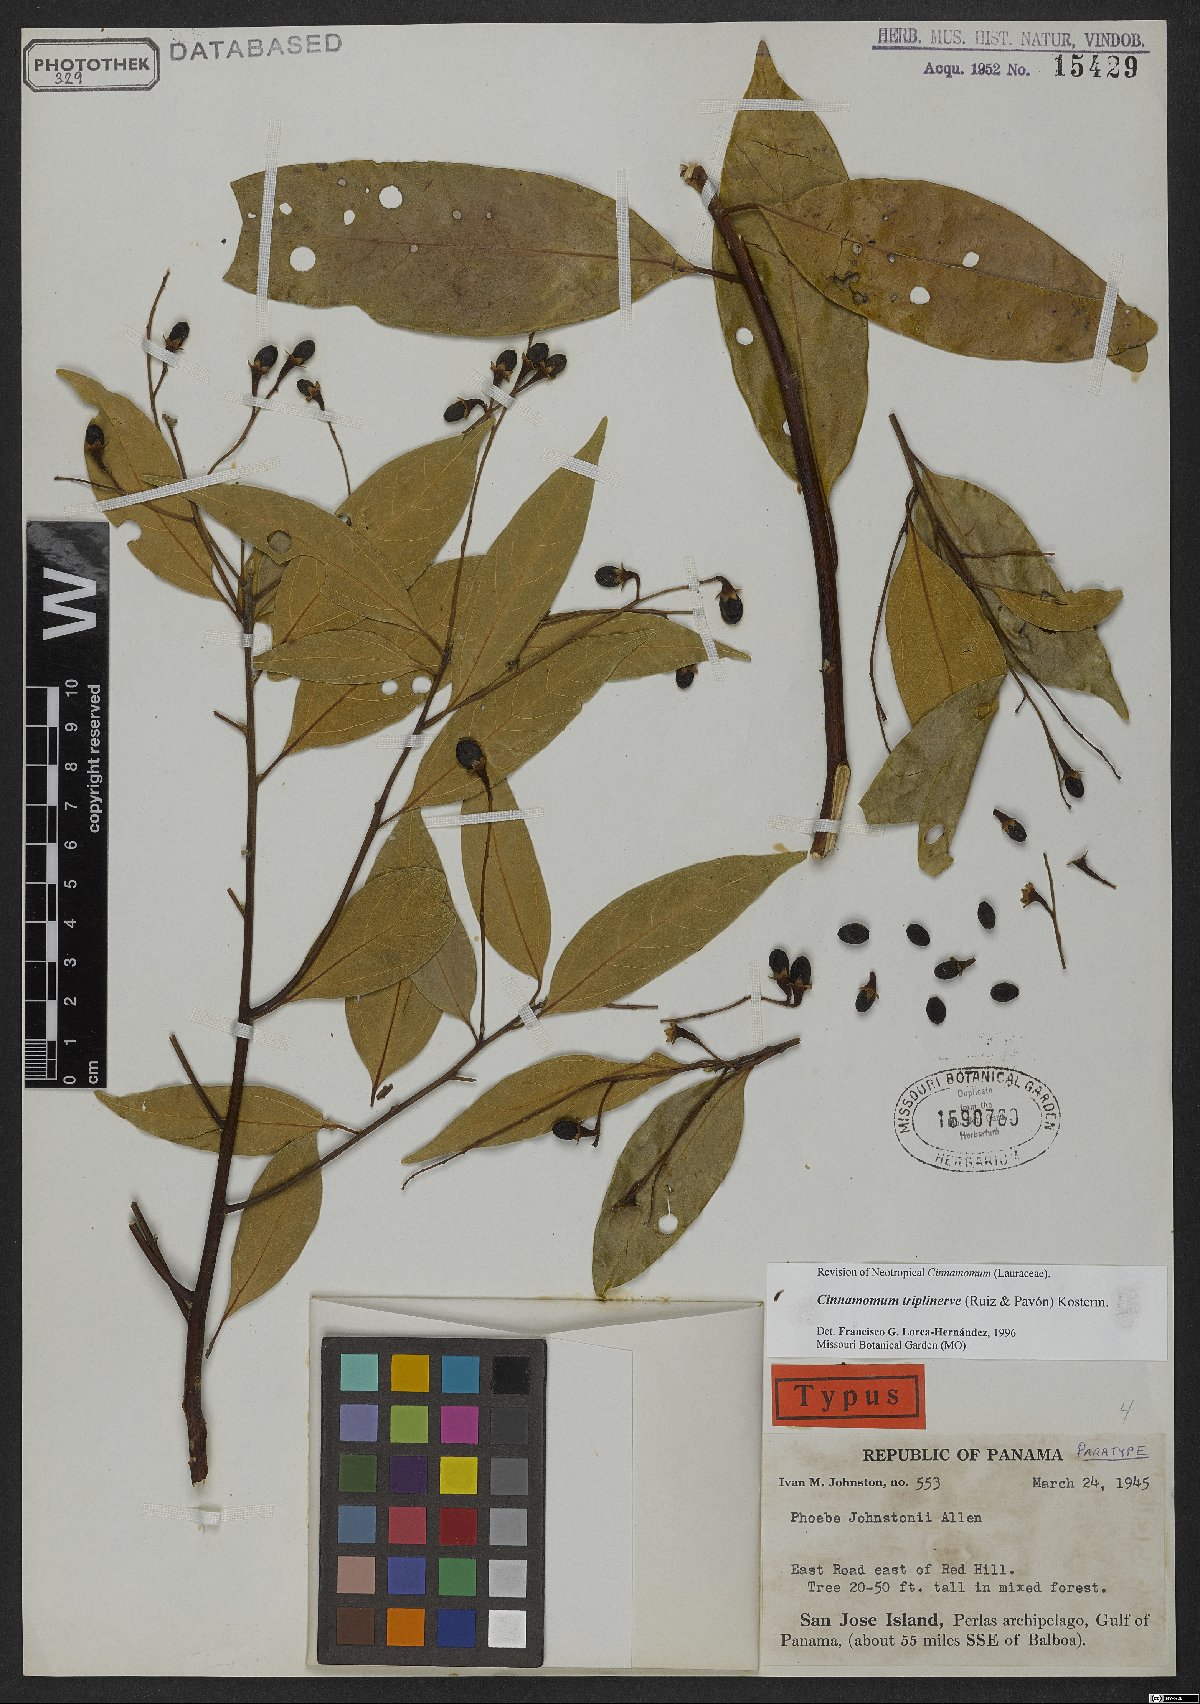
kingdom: Plantae
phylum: Tracheophyta
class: Magnoliopsida
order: Laurales
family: Lauraceae
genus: Aiouea
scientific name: Aiouea montana
